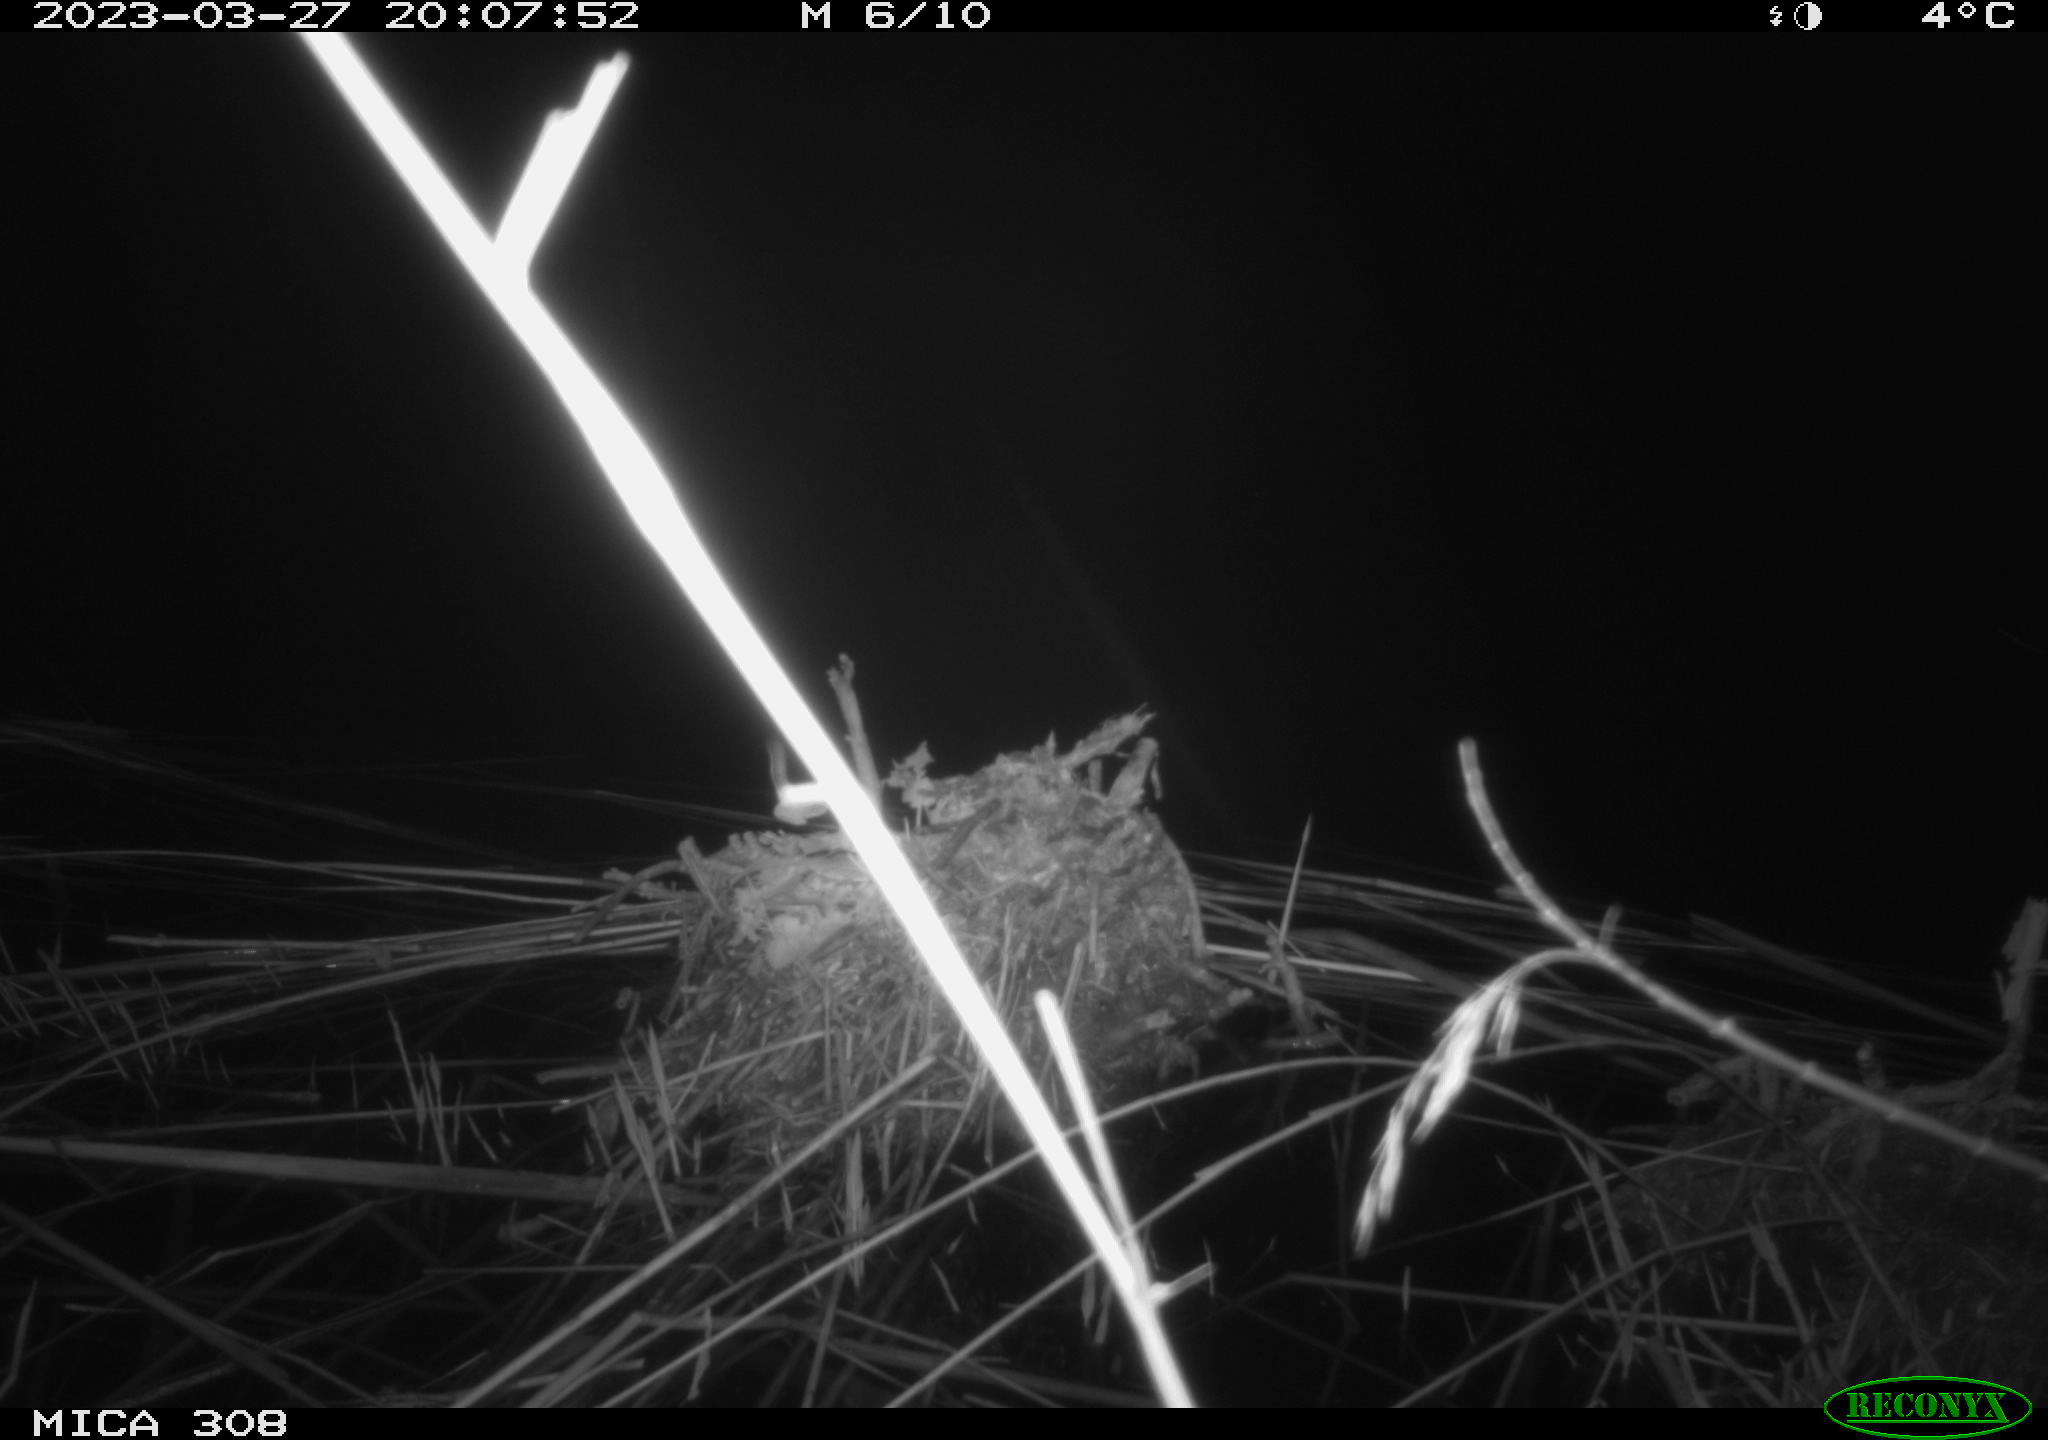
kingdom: Animalia
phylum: Chordata
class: Mammalia
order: Rodentia
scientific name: Rodentia
